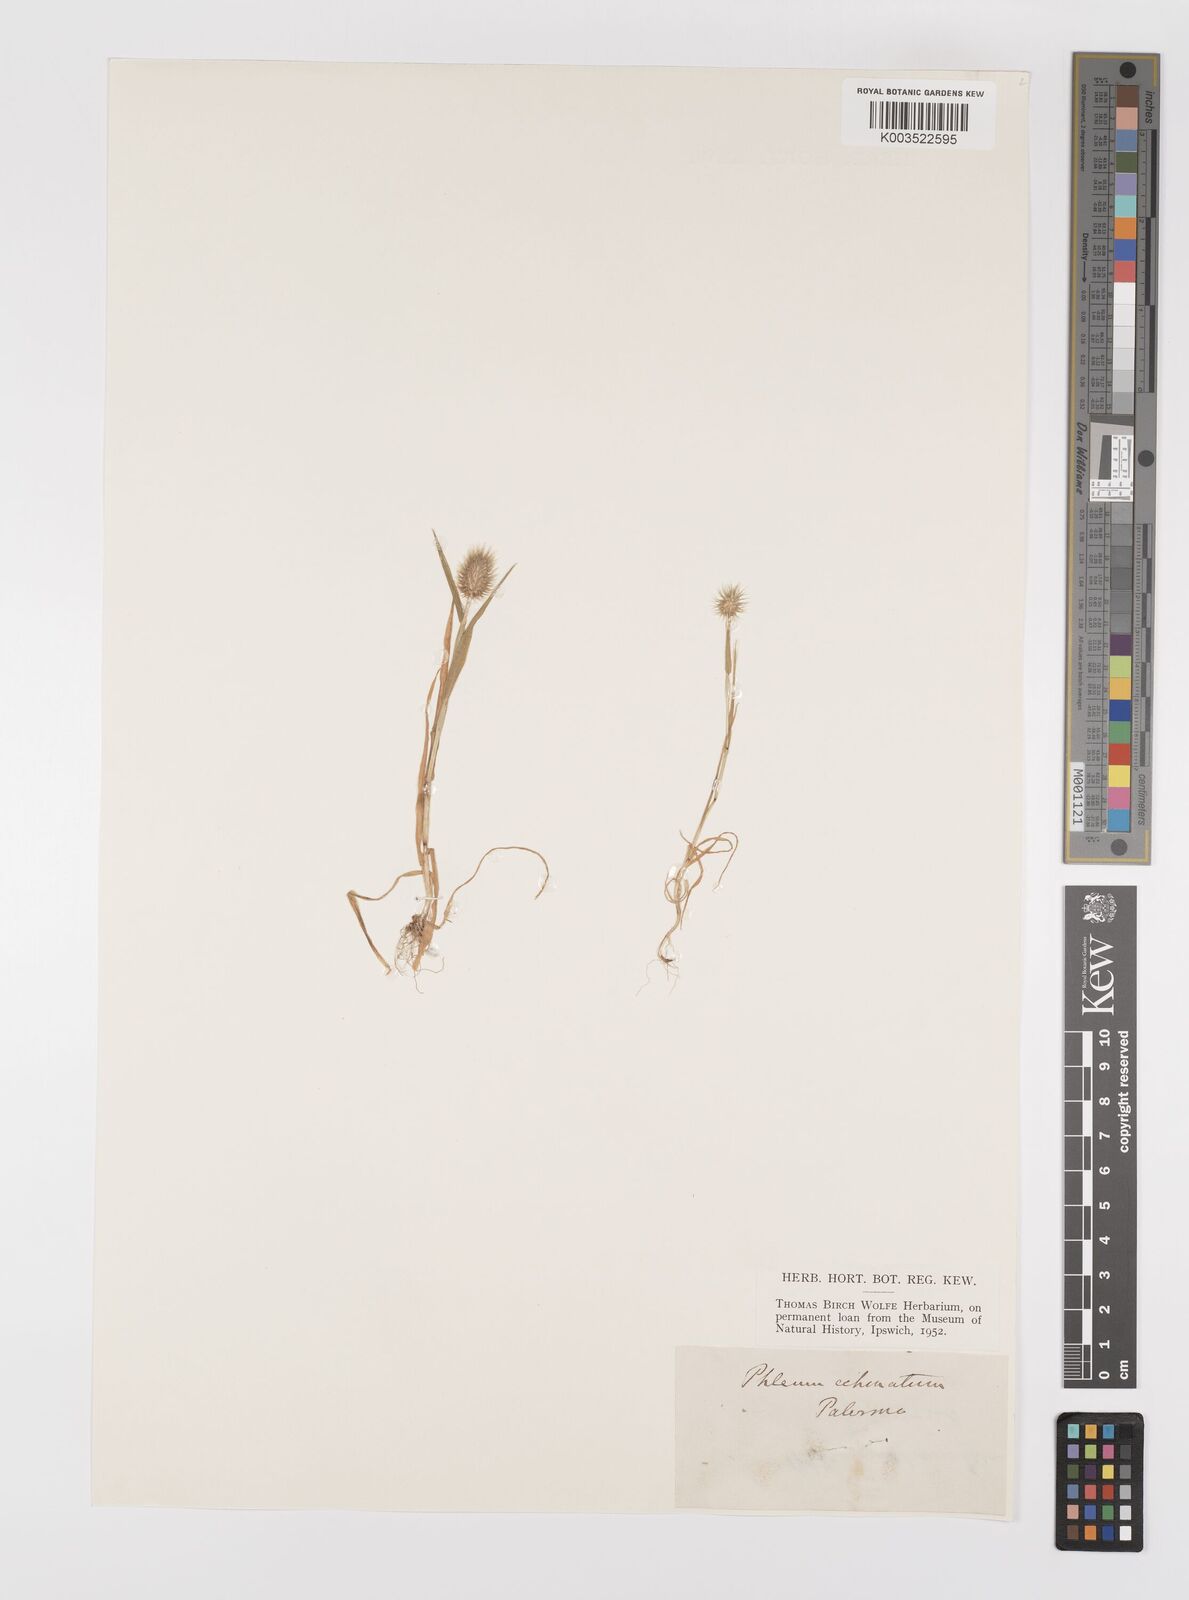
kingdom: Plantae
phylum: Tracheophyta
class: Liliopsida
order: Poales
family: Poaceae
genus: Phleum
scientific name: Phleum echinatum
